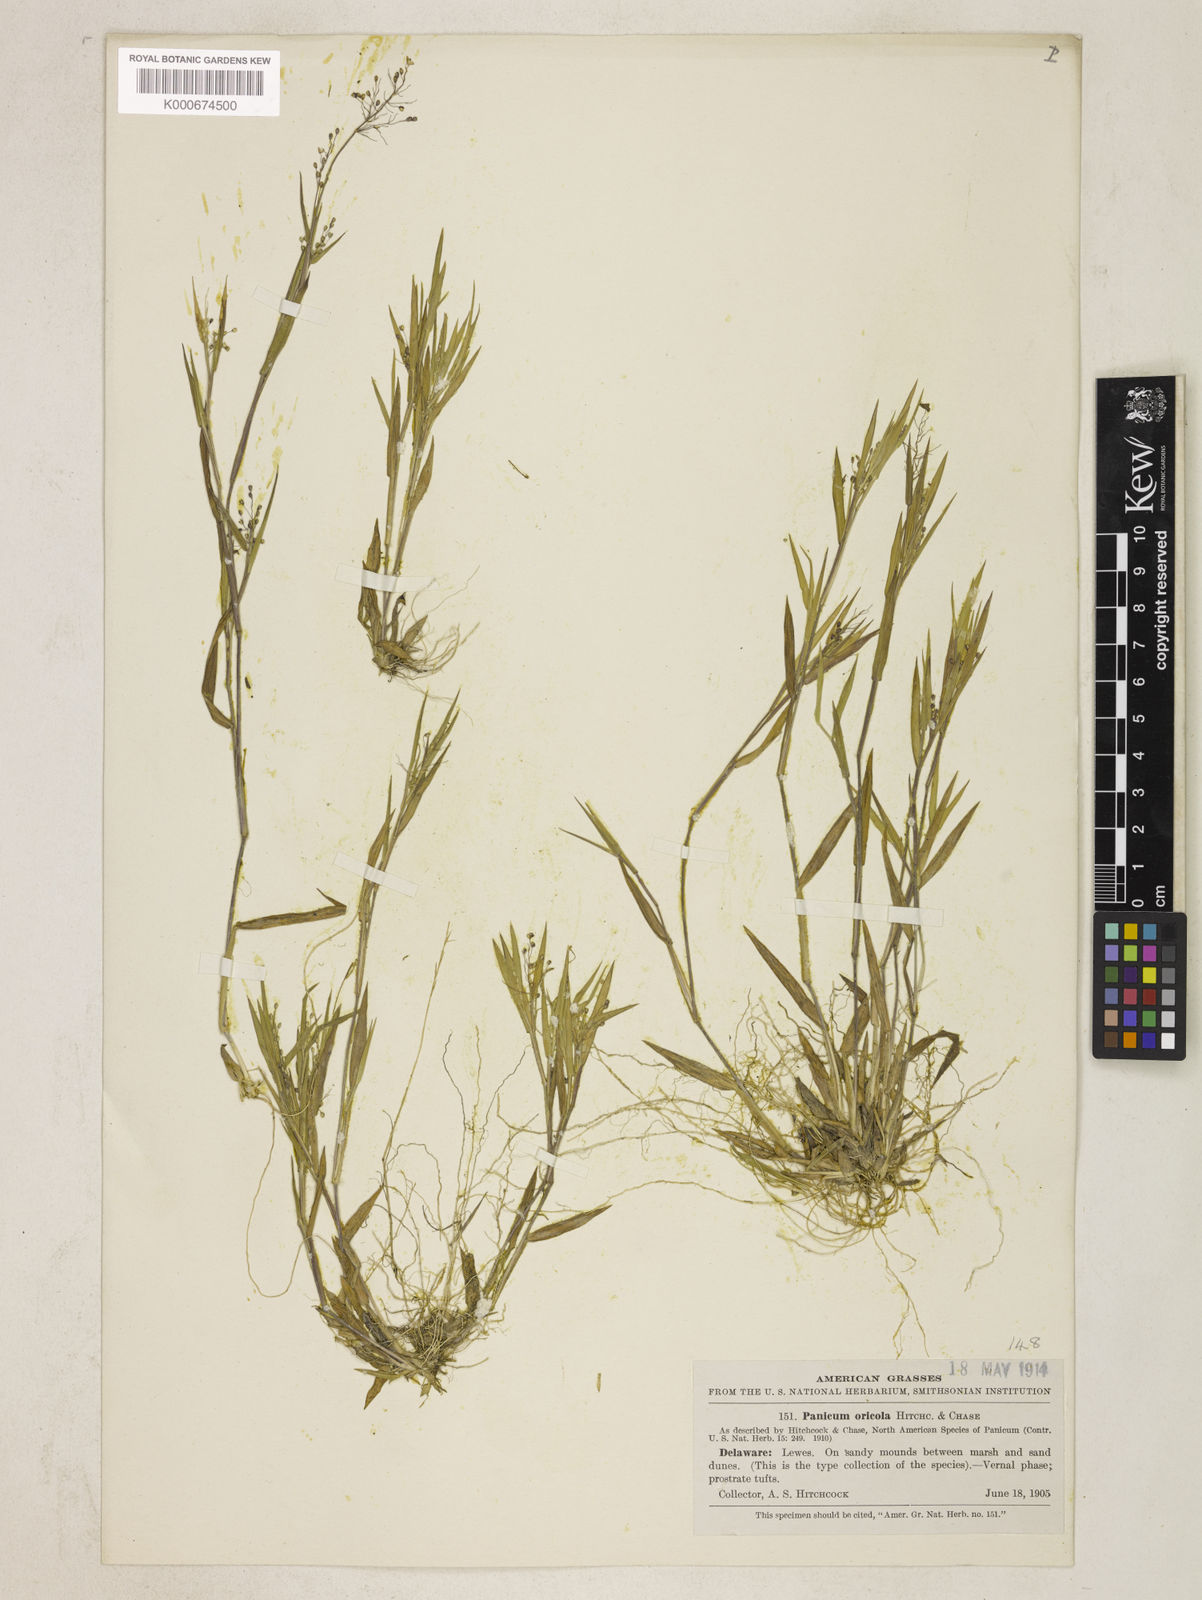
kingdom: Plantae
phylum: Tracheophyta
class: Liliopsida
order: Poales
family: Poaceae
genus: Dichanthelium
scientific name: Dichanthelium sabulorum
